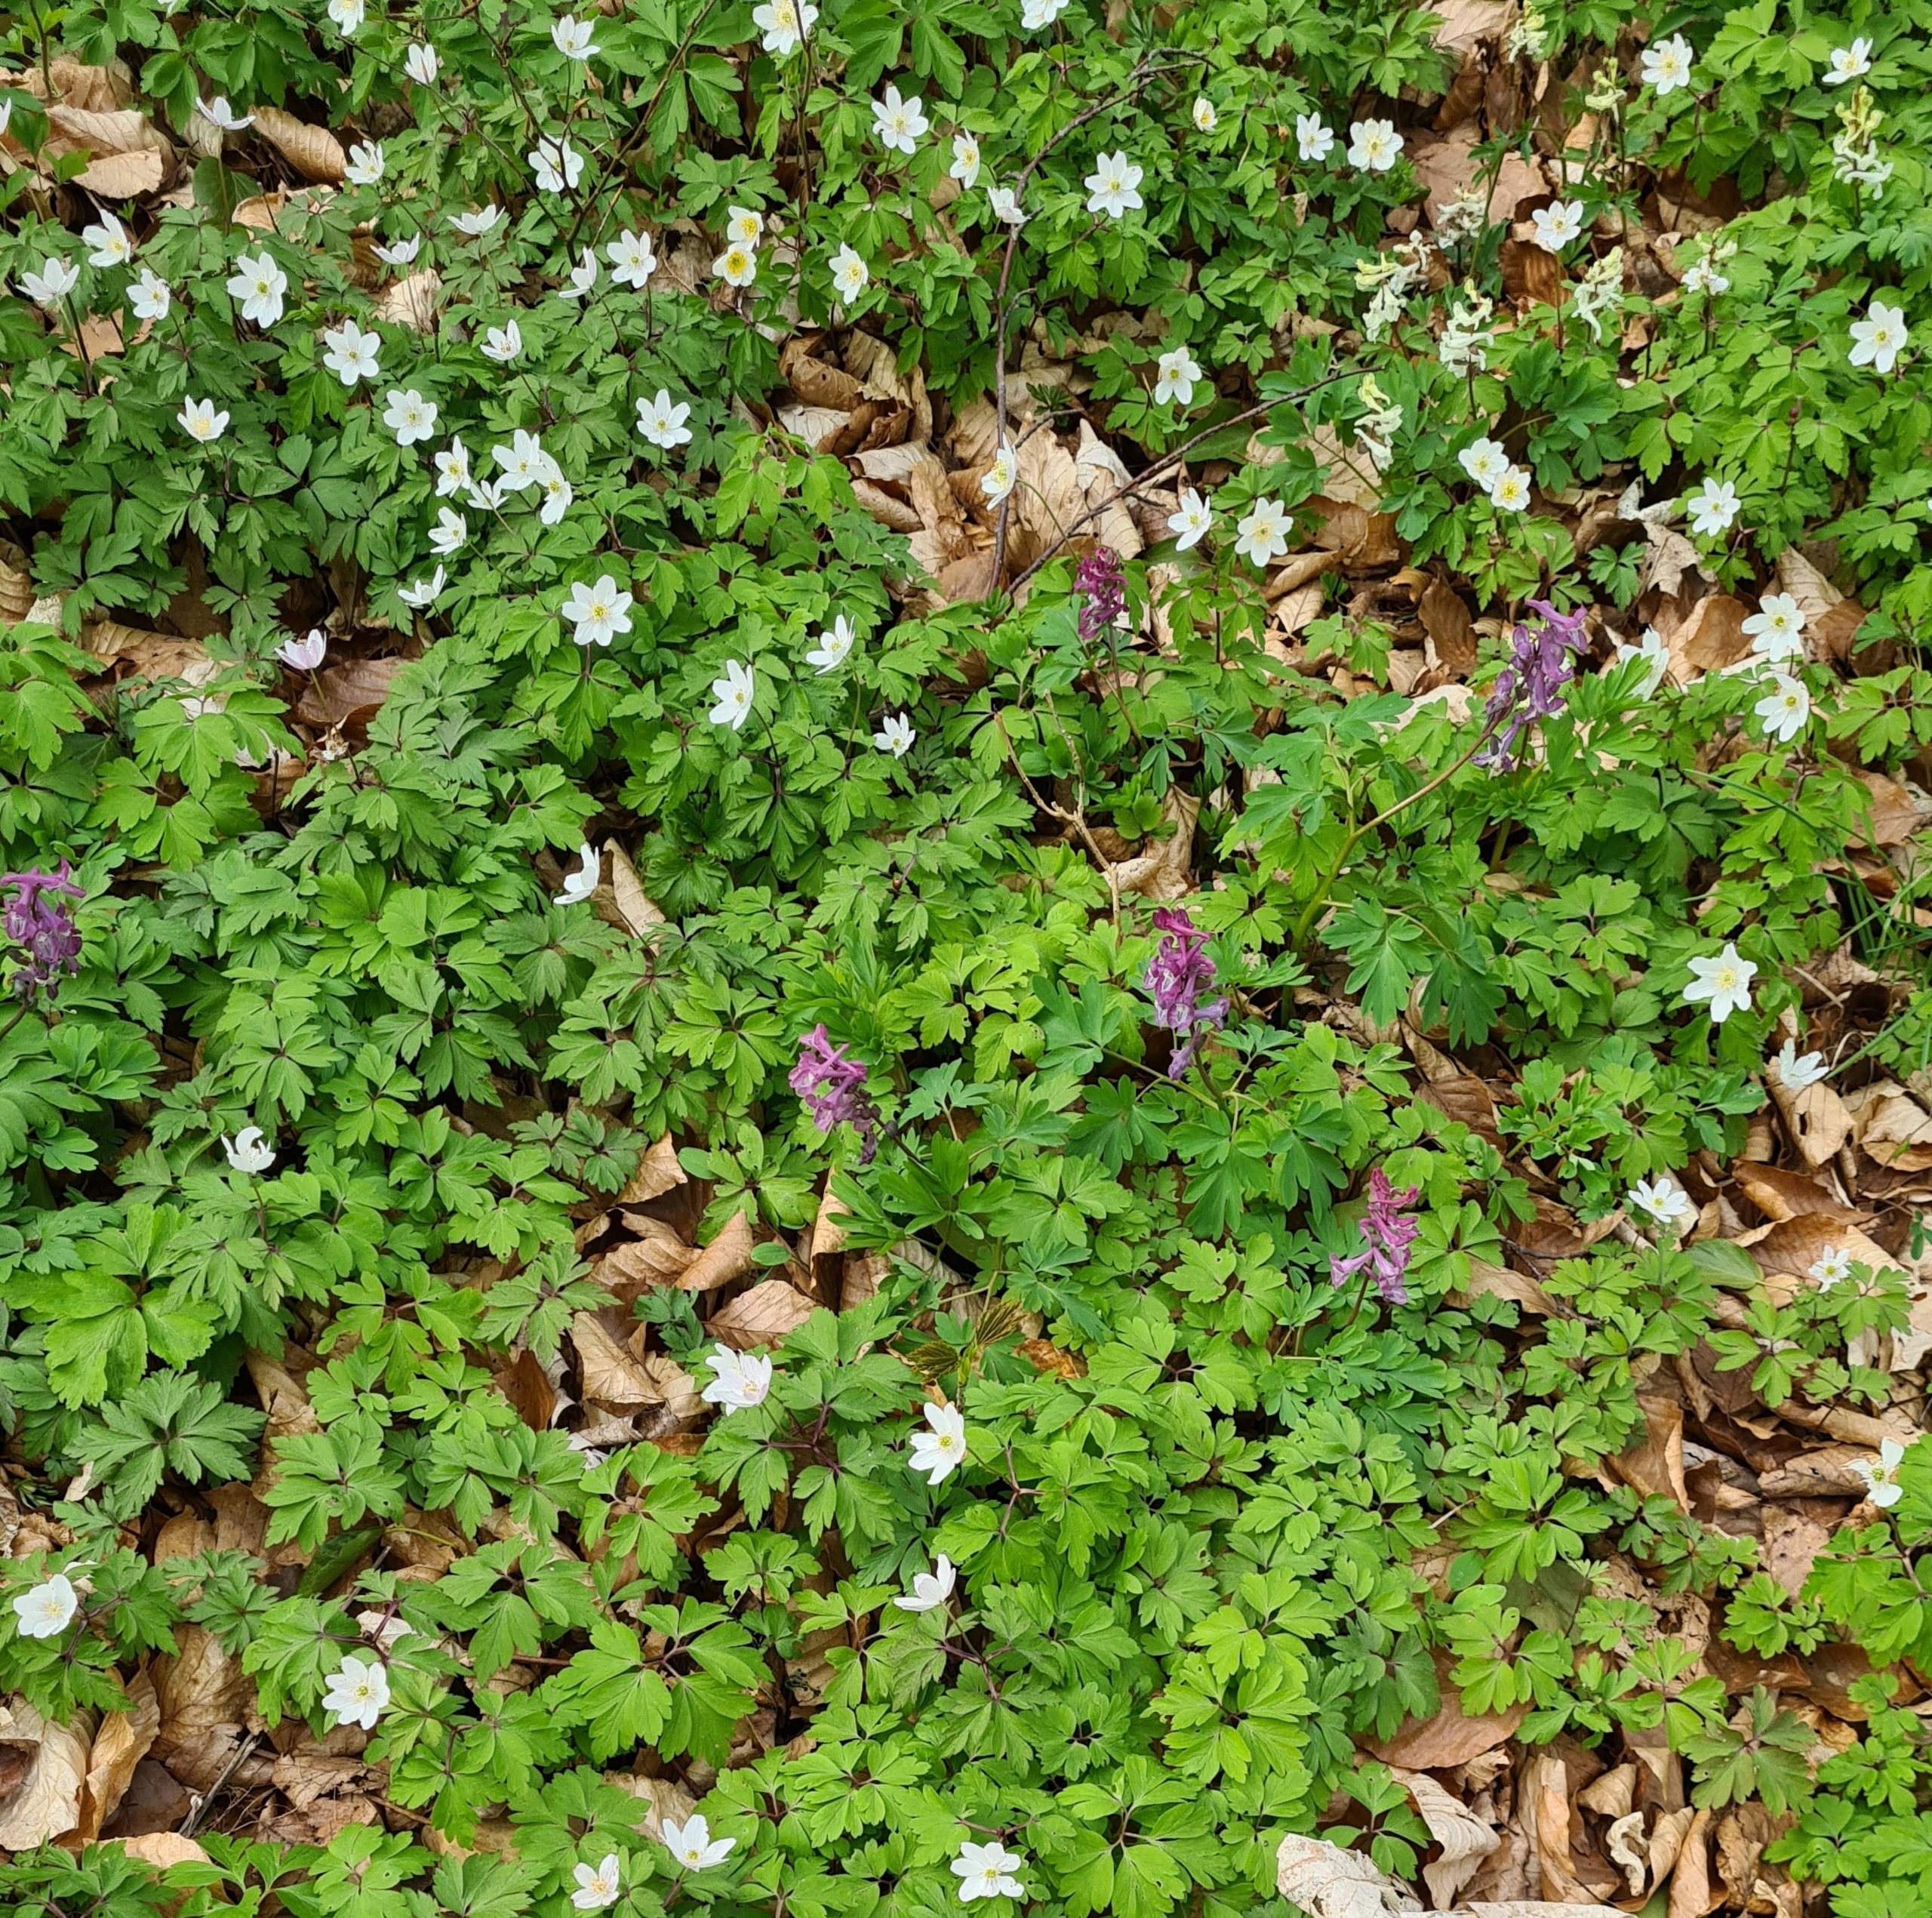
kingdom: Plantae
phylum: Tracheophyta
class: Magnoliopsida
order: Ranunculales
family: Ranunculaceae
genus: Anemone
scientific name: Anemone nemorosa
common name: Hvid anemone
